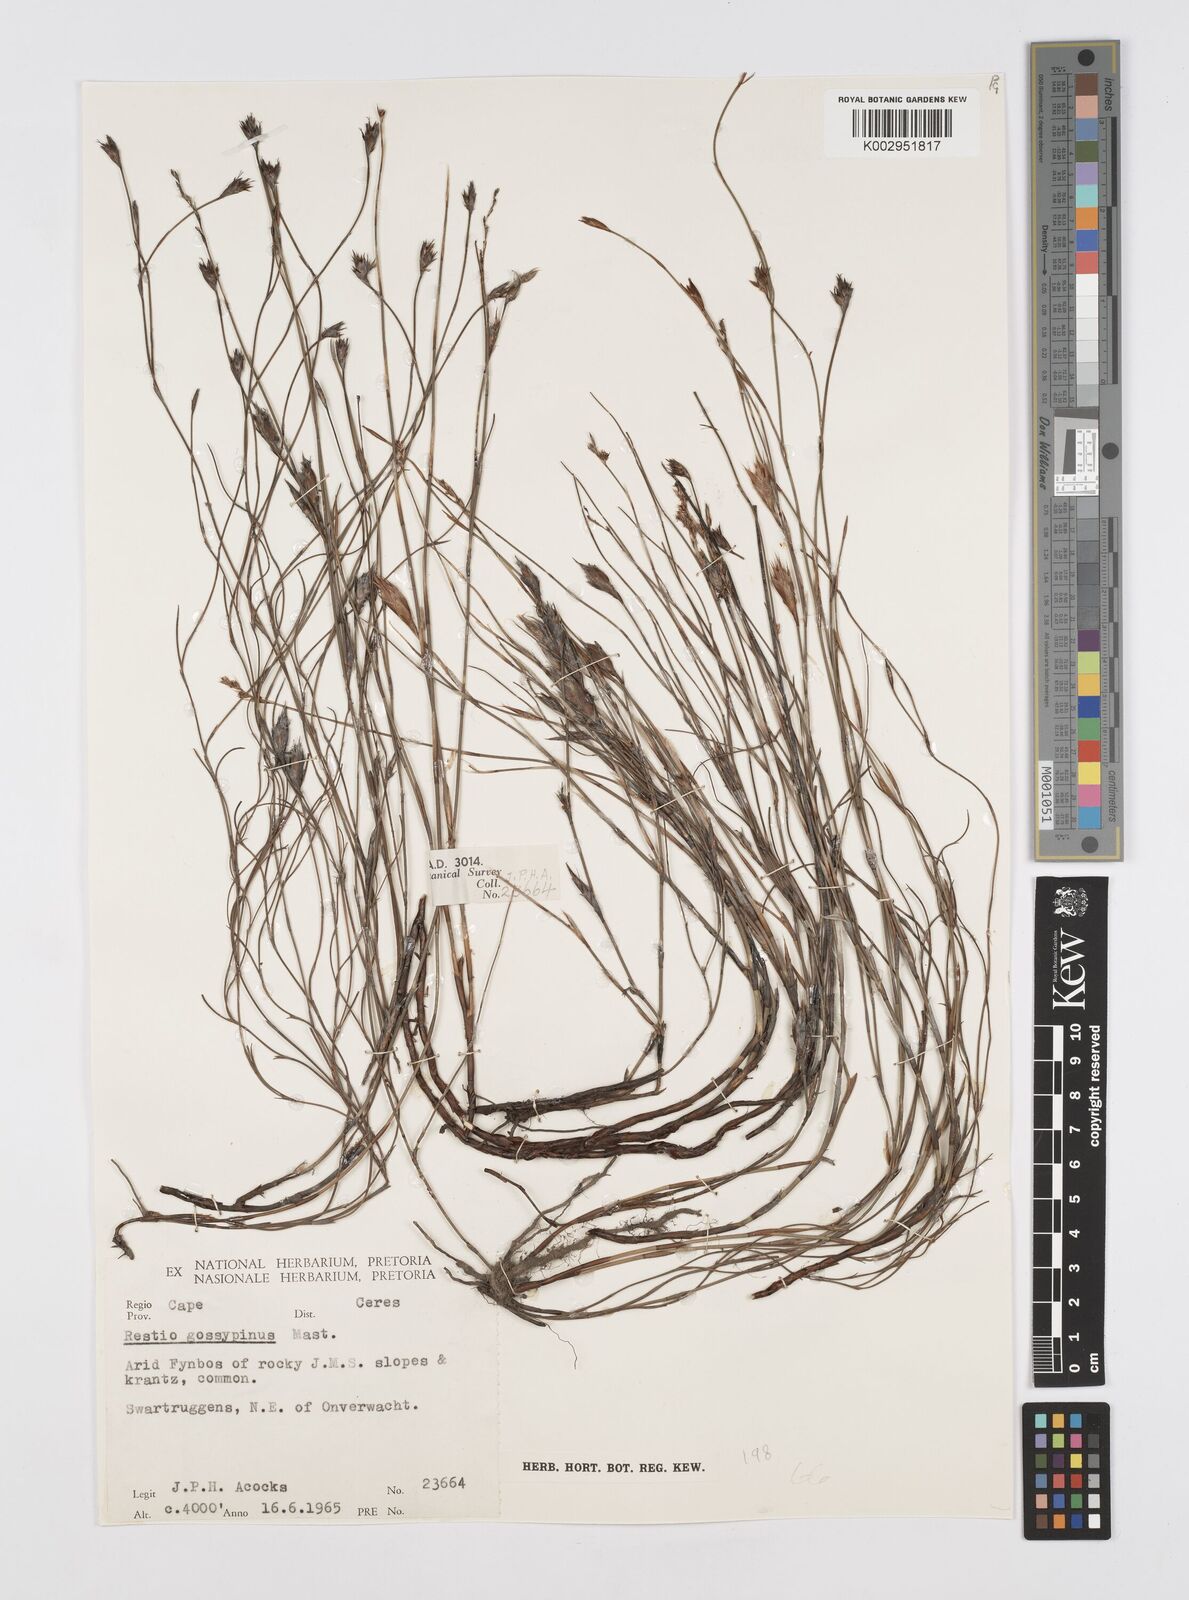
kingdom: Plantae
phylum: Tracheophyta
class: Liliopsida
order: Poales
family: Restionaceae
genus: Restio
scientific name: Restio strictus
